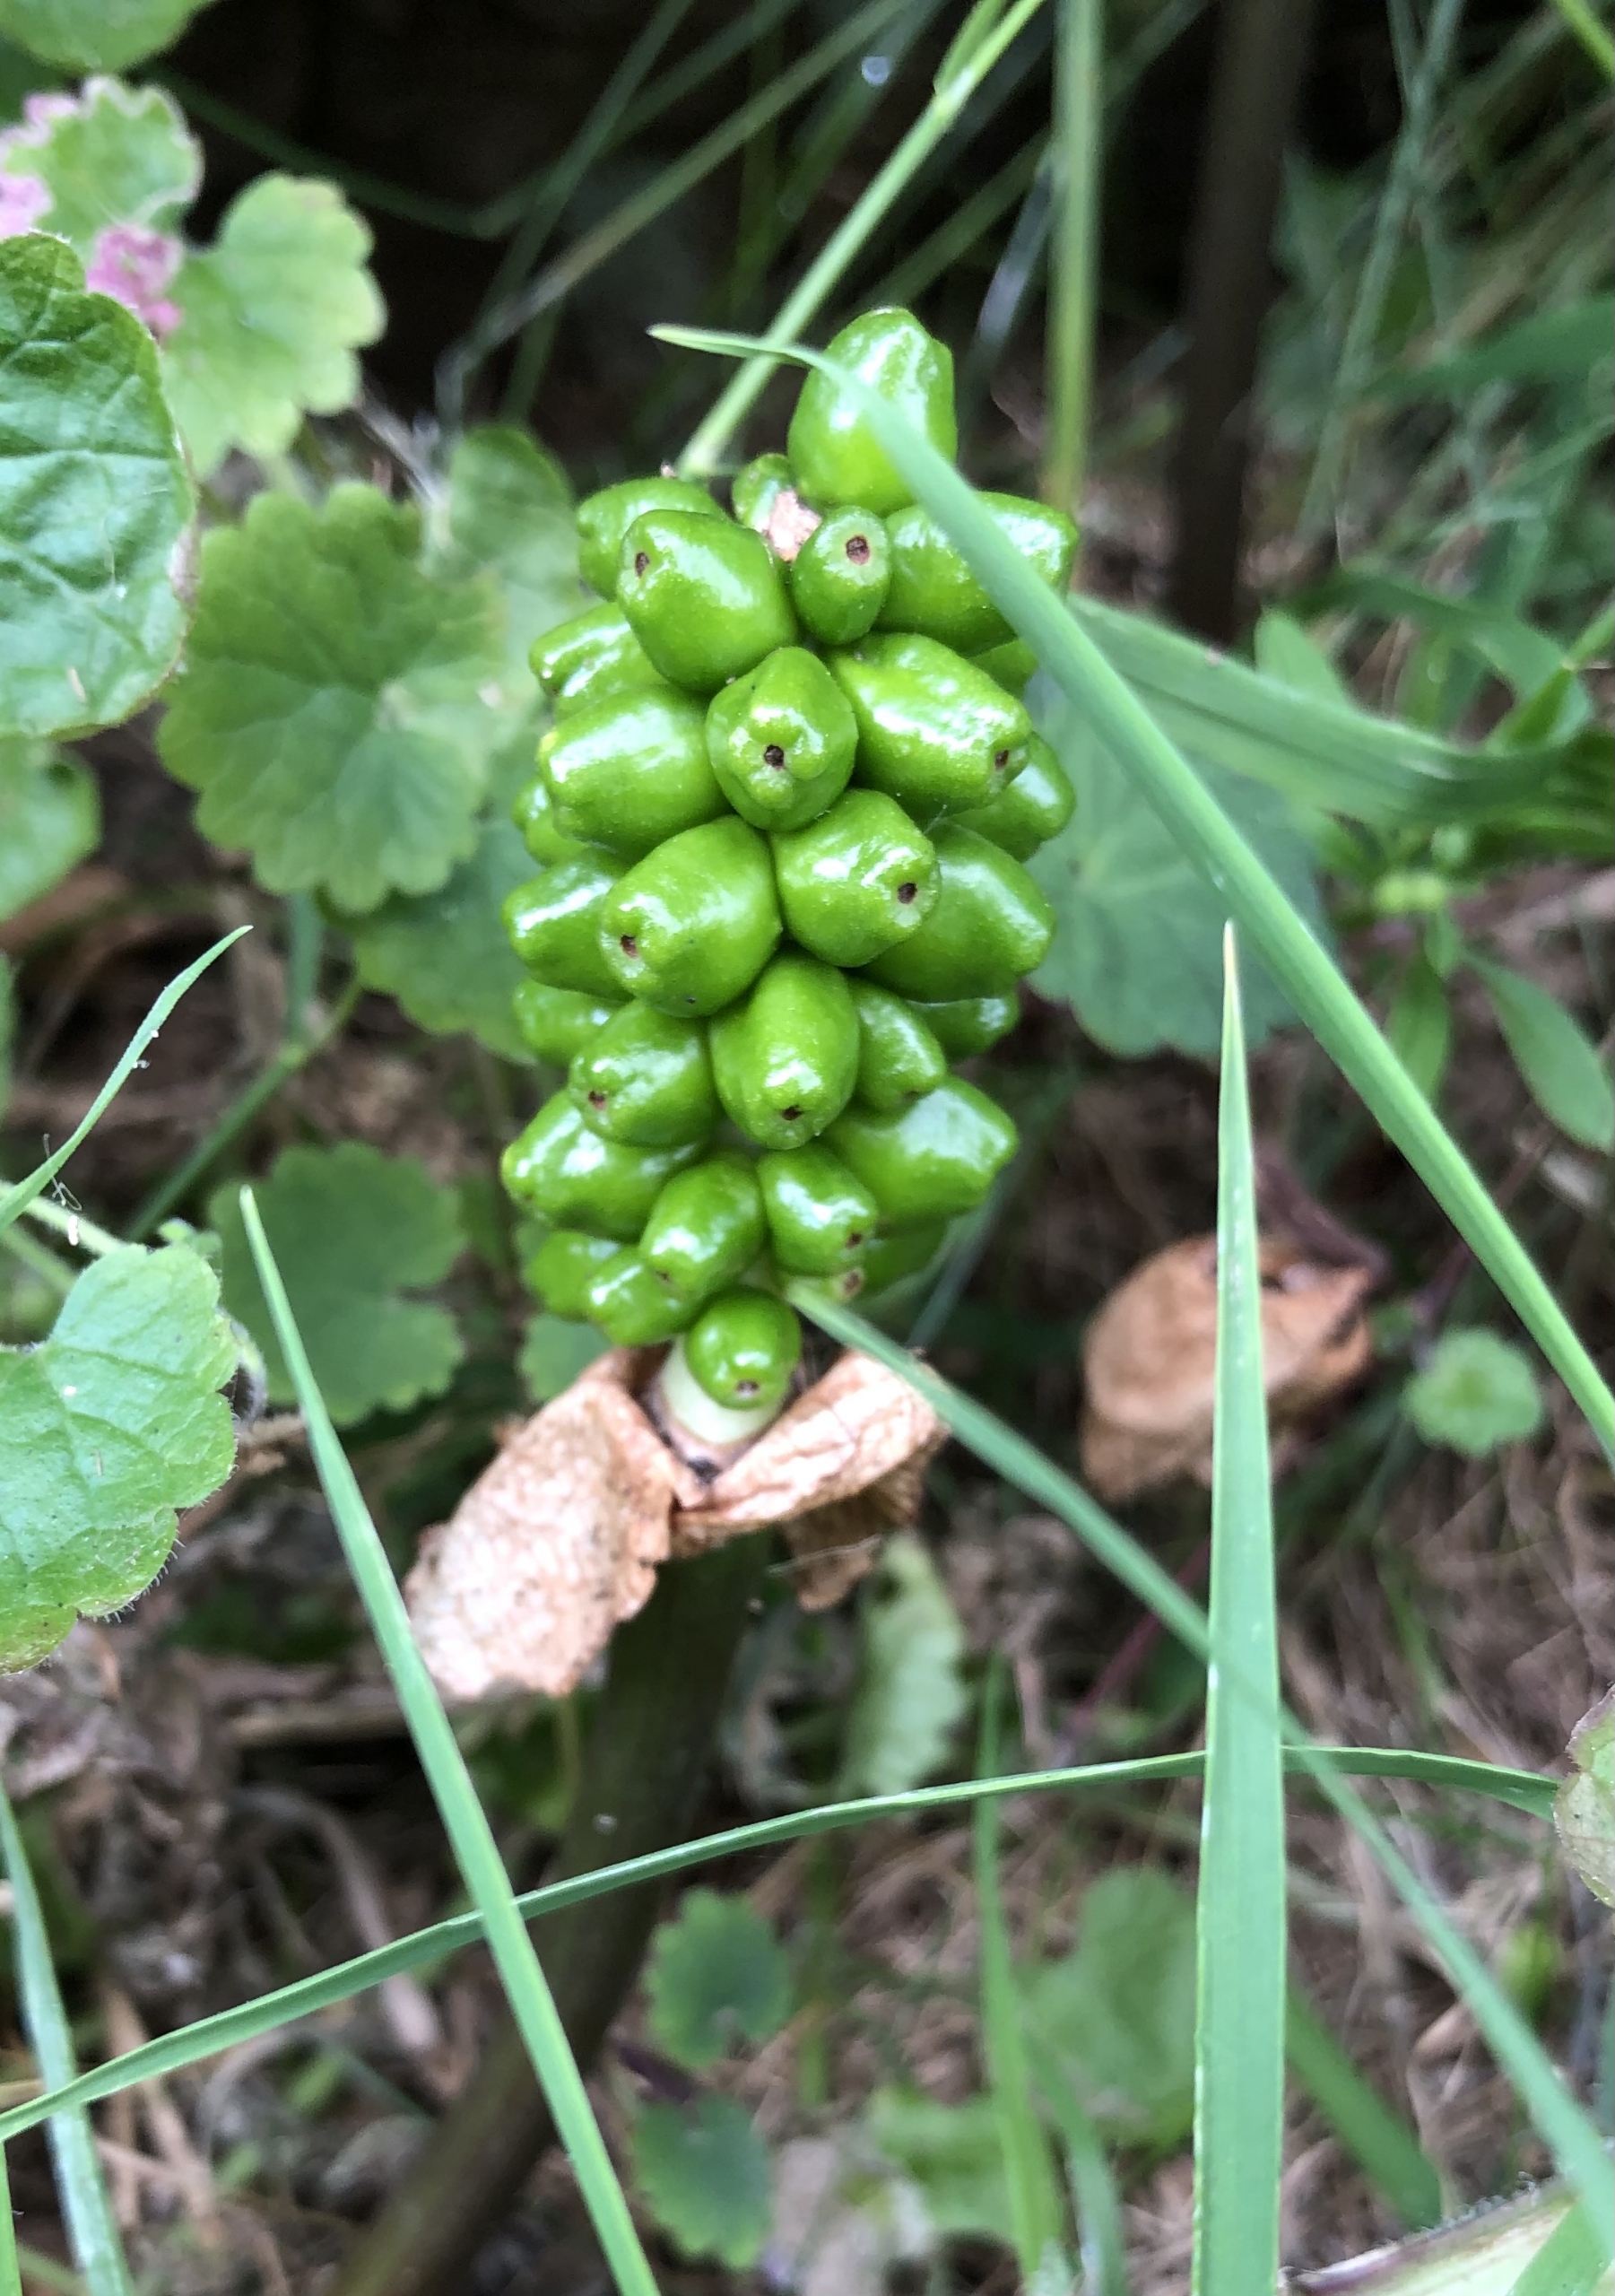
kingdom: Plantae
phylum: Tracheophyta
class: Liliopsida
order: Alismatales
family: Araceae
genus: Arum
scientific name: Arum
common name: Arumslægten
